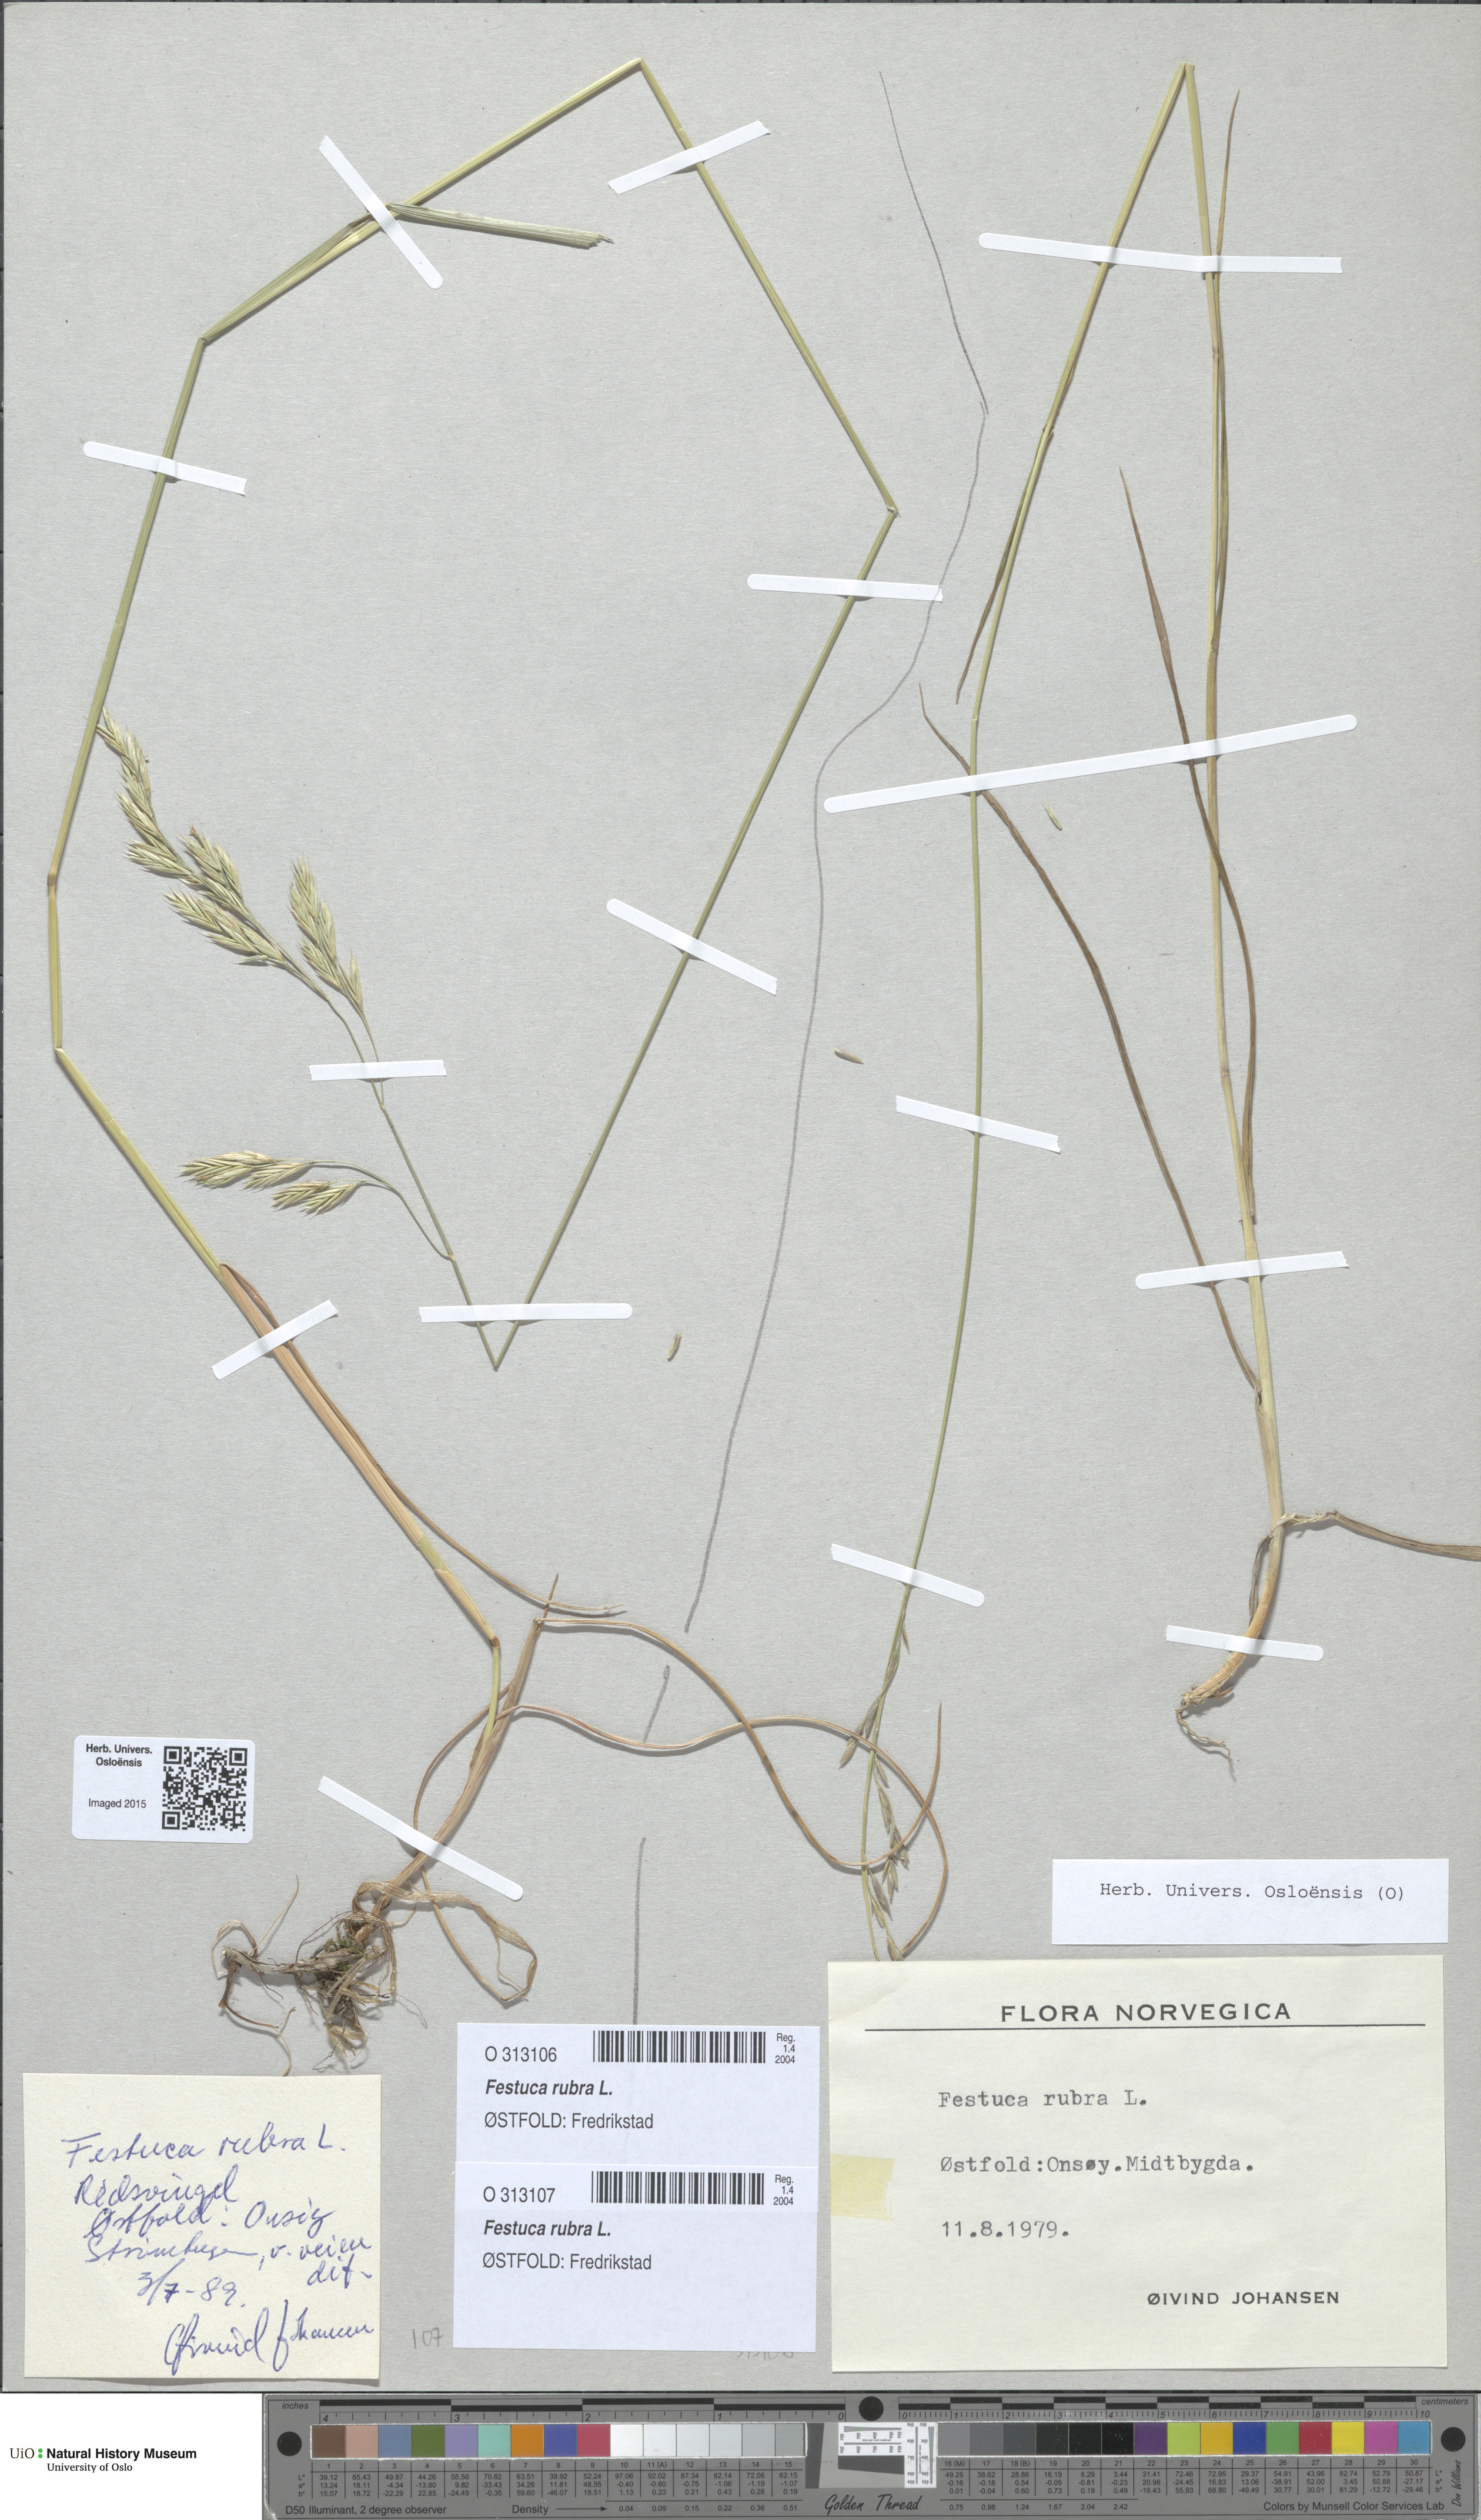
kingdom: Plantae
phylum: Tracheophyta
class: Liliopsida
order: Poales
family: Poaceae
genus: Festuca
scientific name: Festuca rubra
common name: Red fescue
